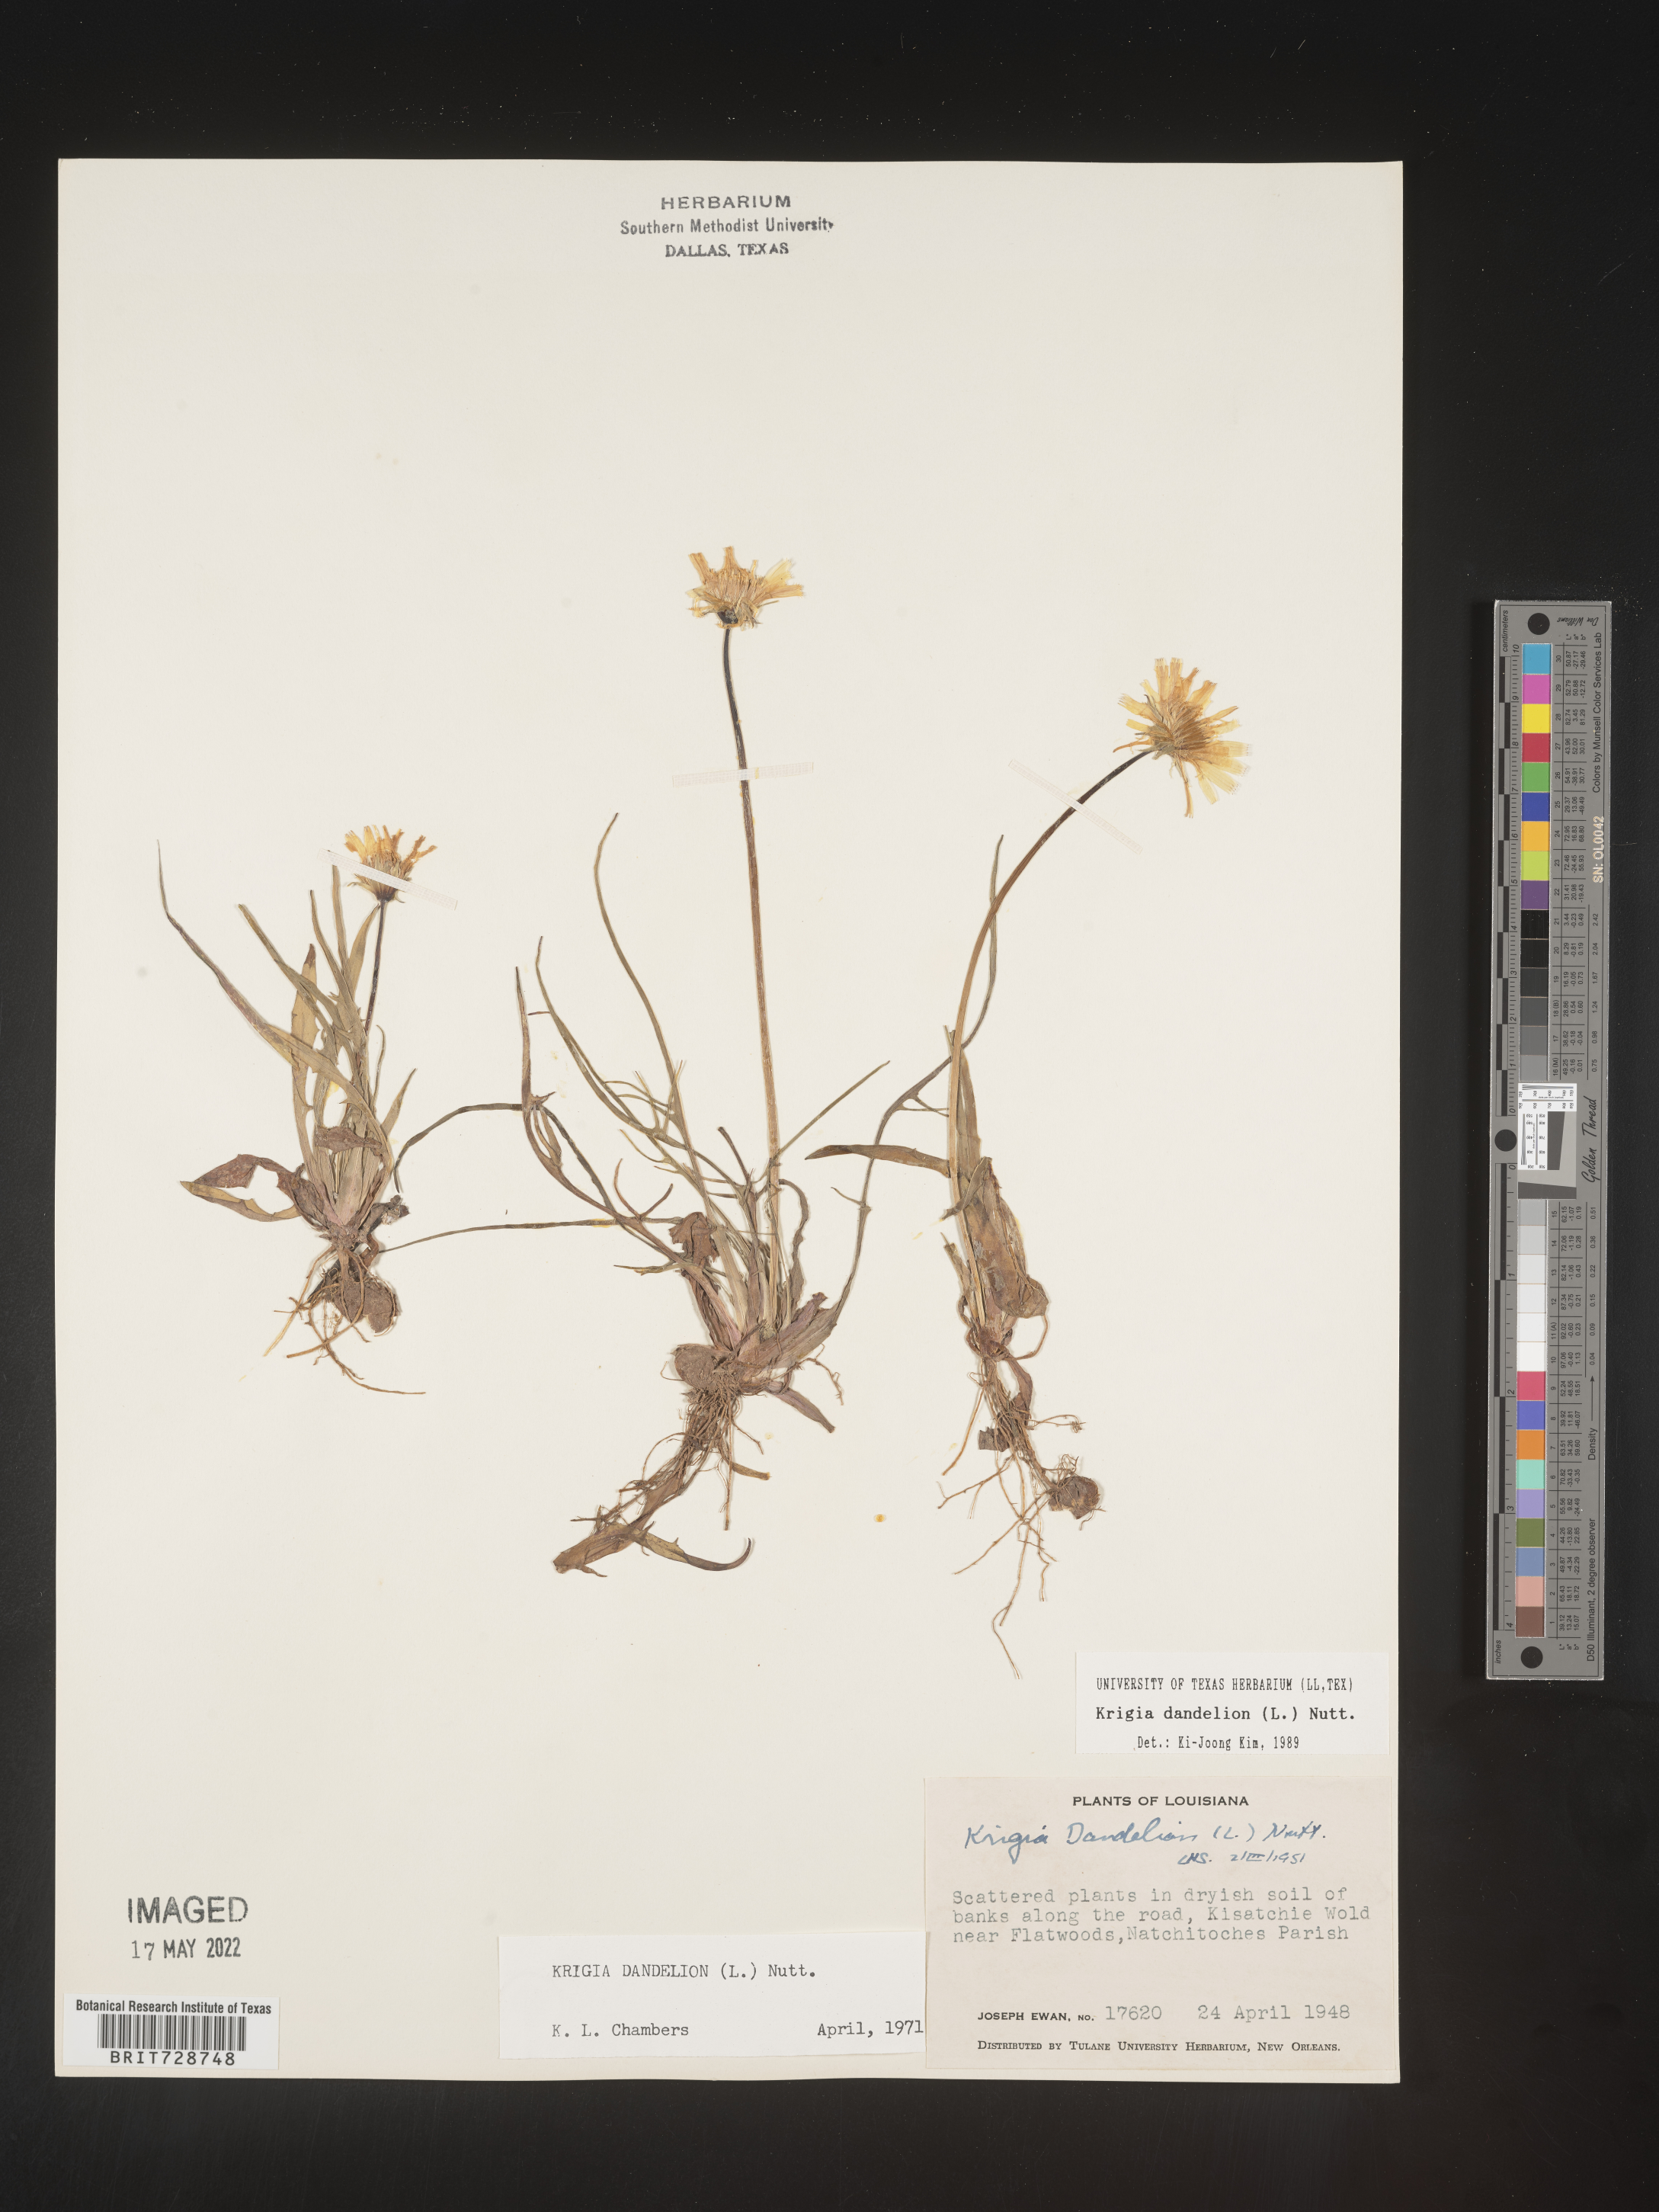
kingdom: Plantae
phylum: Tracheophyta
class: Magnoliopsida
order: Asterales
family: Asteraceae
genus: Krigia
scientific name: Krigia dandelion
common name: Colonial dwarf-dandelion
